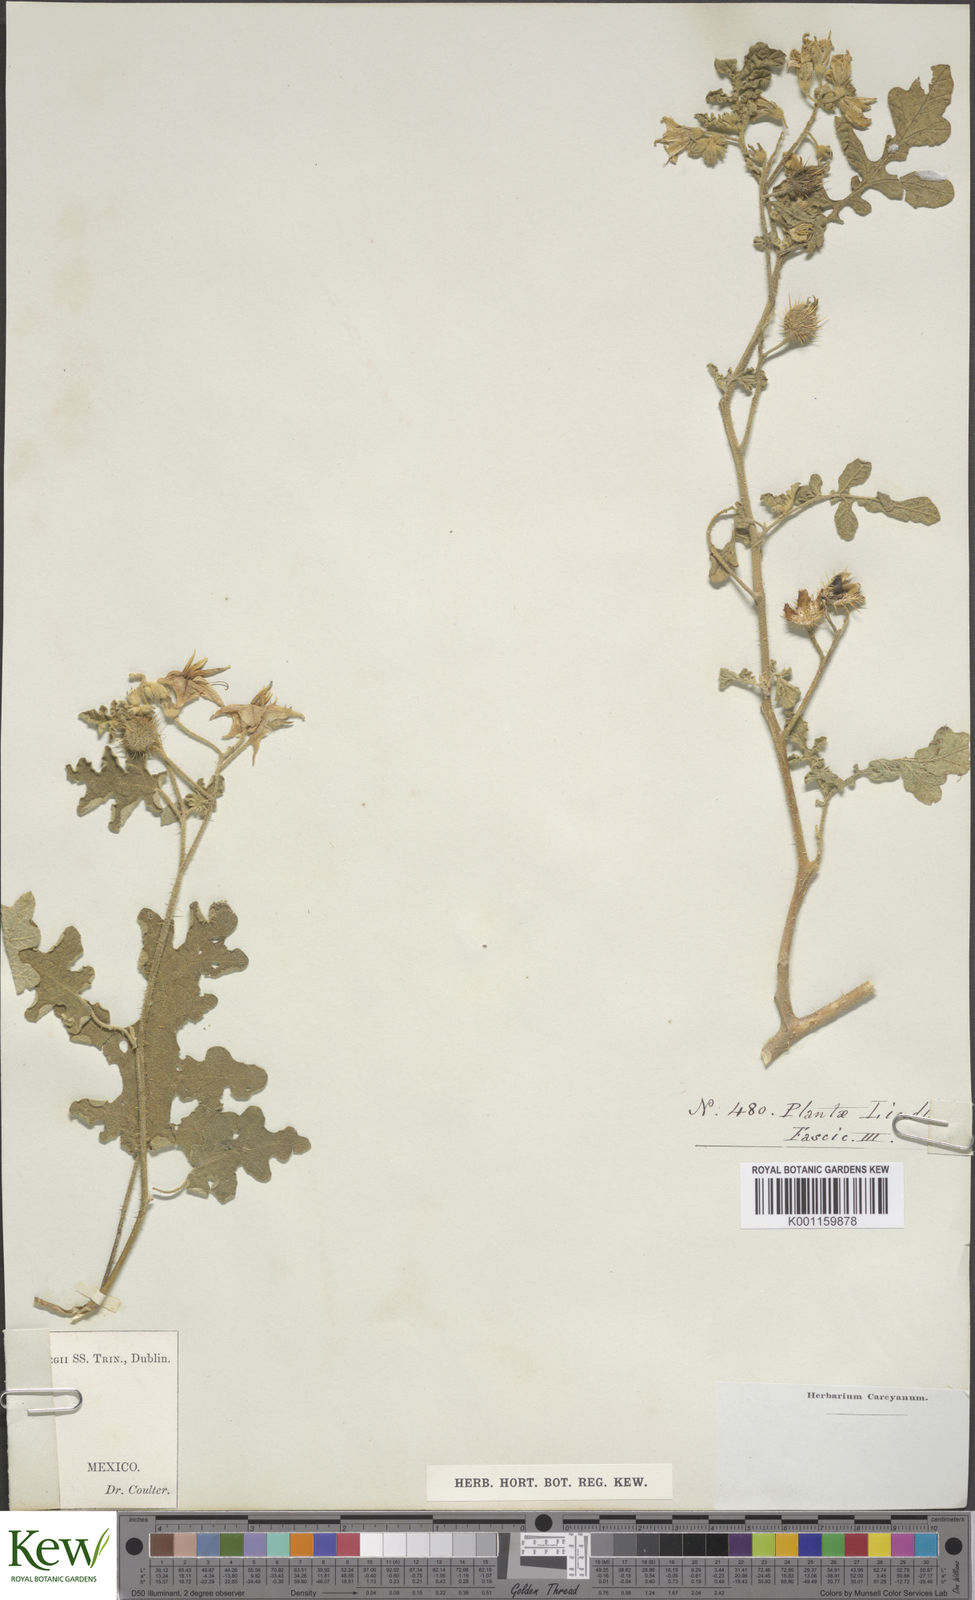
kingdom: Plantae
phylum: Tracheophyta
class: Magnoliopsida
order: Solanales
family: Solanaceae
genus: Solanum
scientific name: Solanum angustifolium
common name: Buffalobur nightshade
